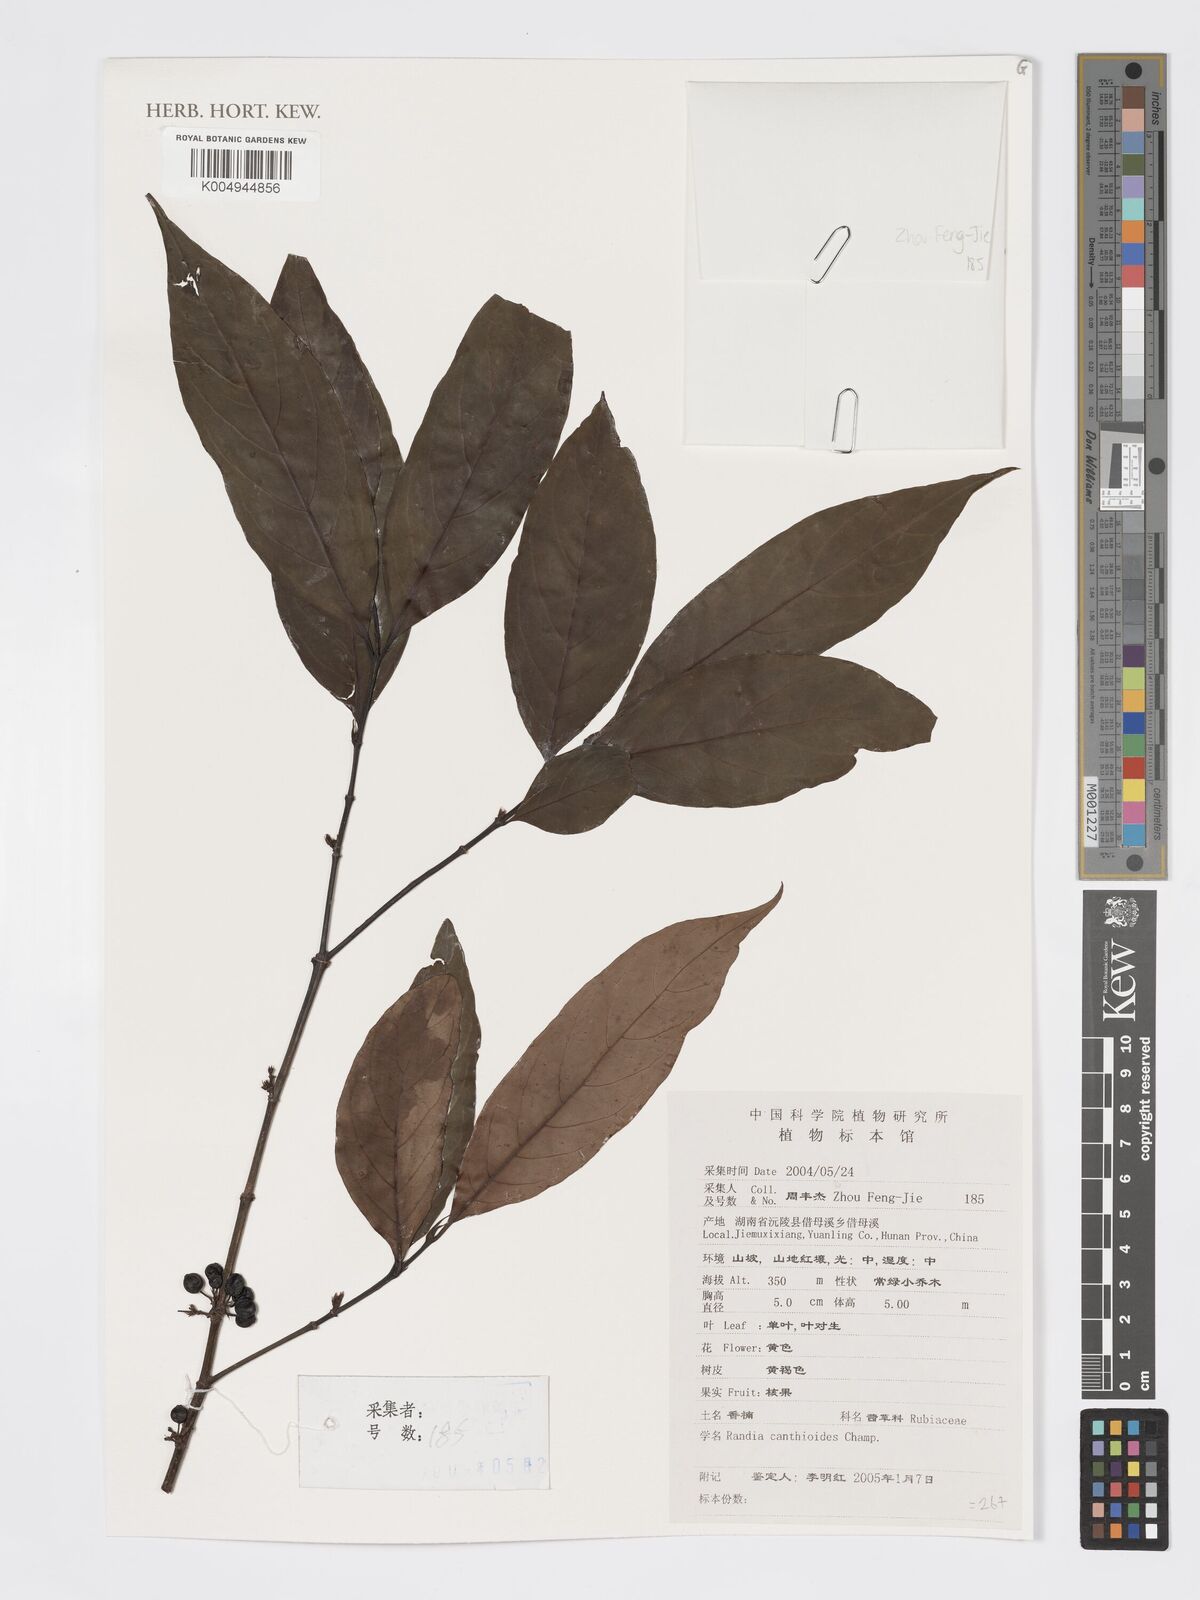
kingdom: Plantae
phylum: Tracheophyta
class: Magnoliopsida
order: Gentianales
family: Rubiaceae
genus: Aidia
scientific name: Aidia canthioides
